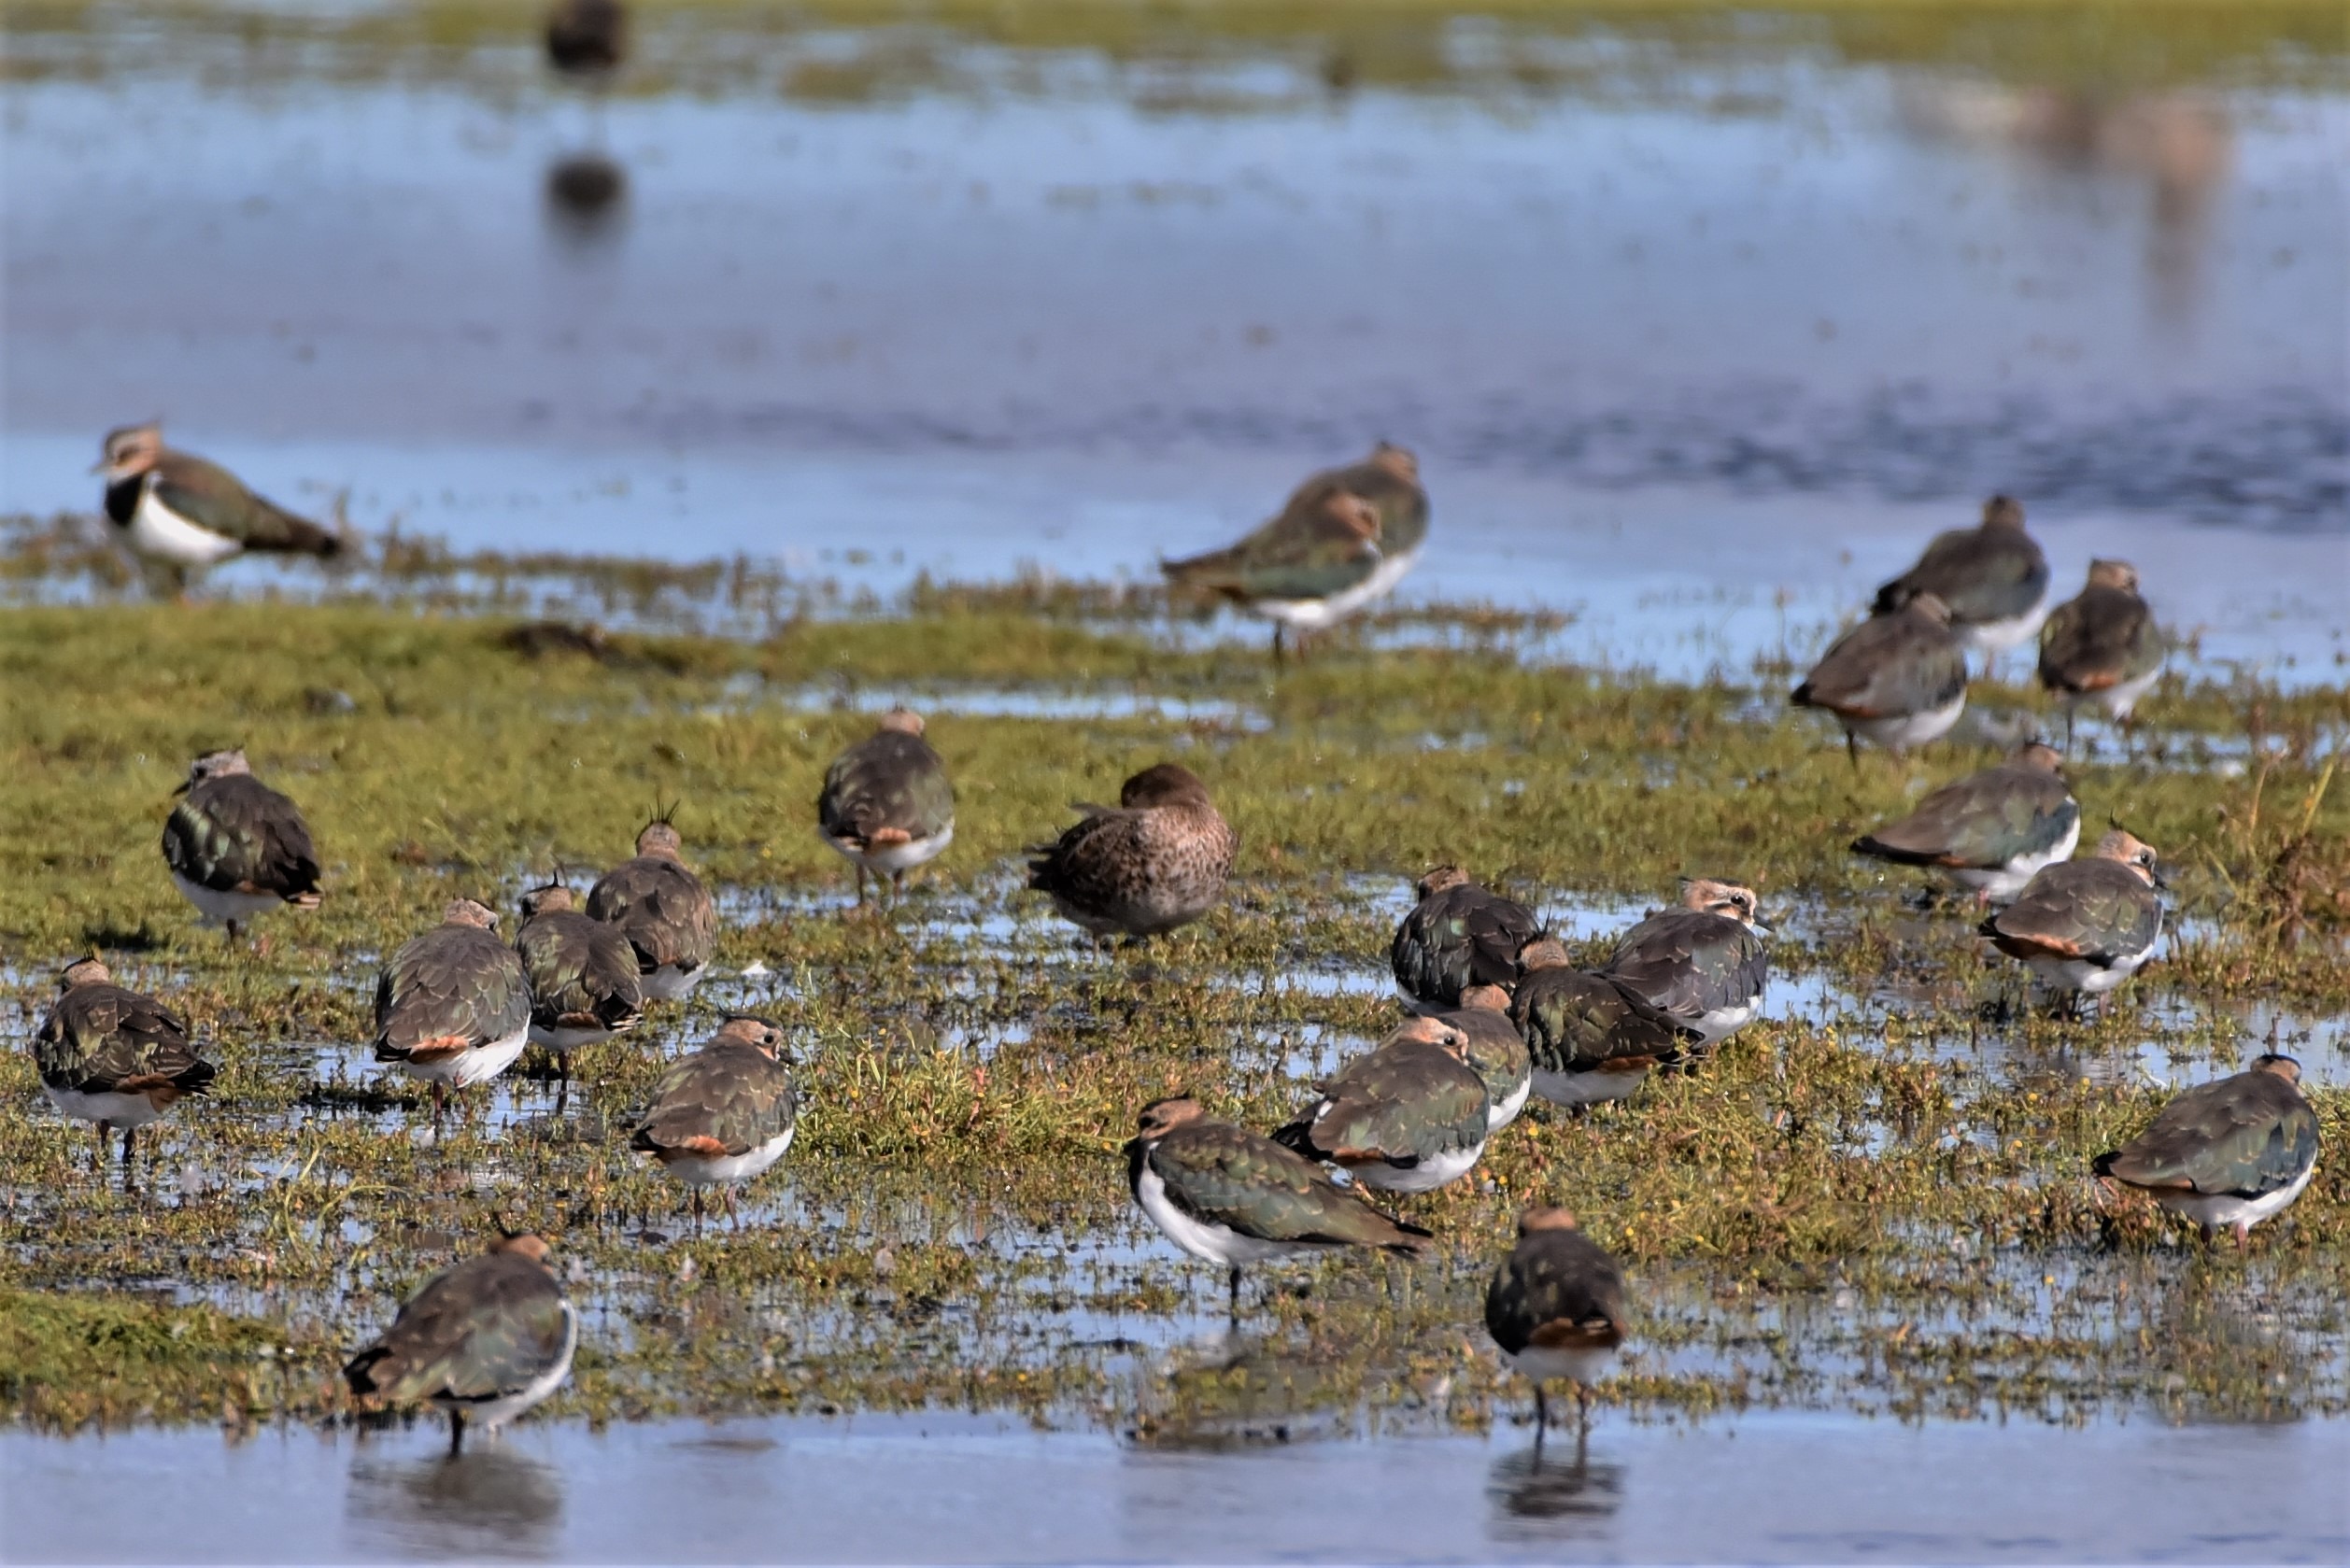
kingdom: Animalia
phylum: Chordata
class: Aves
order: Charadriiformes
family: Charadriidae
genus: Vanellus
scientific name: Vanellus vanellus
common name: Vibe
